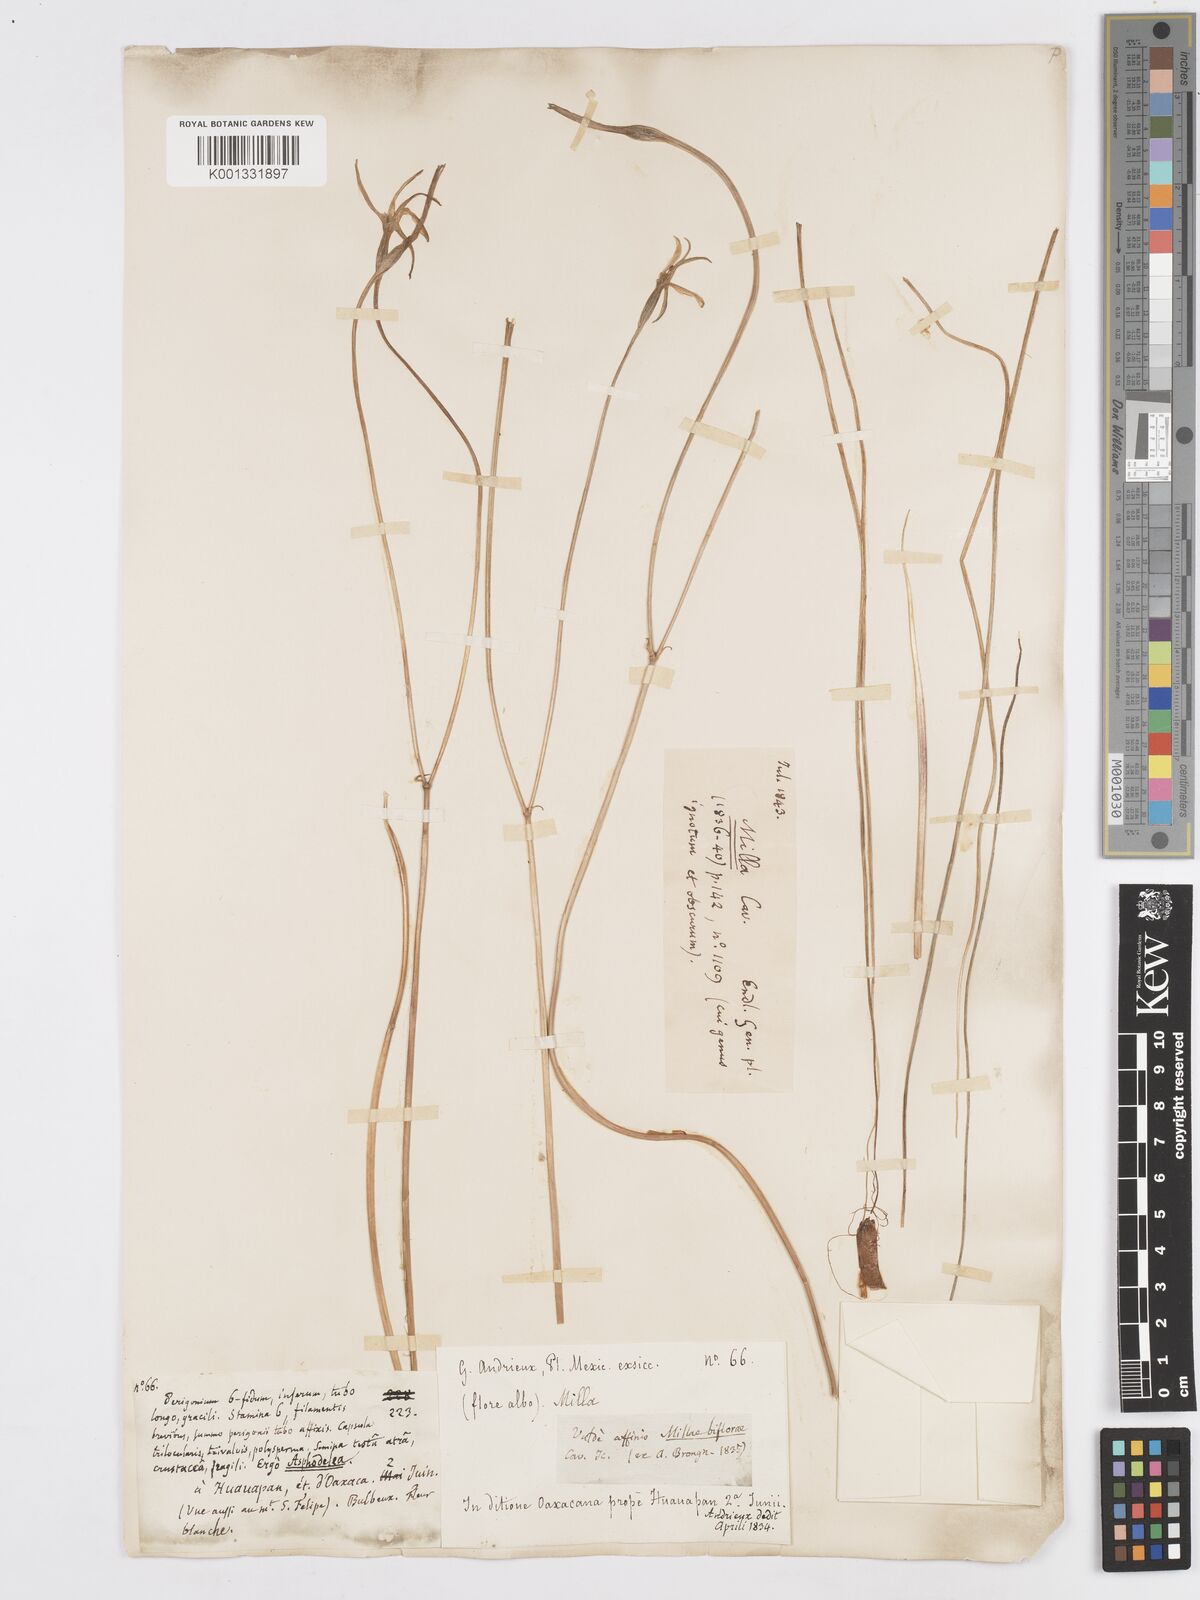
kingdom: Plantae
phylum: Tracheophyta
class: Liliopsida
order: Asparagales
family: Asparagaceae
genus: Milla
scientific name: Milla biflora
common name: Mexican-star
